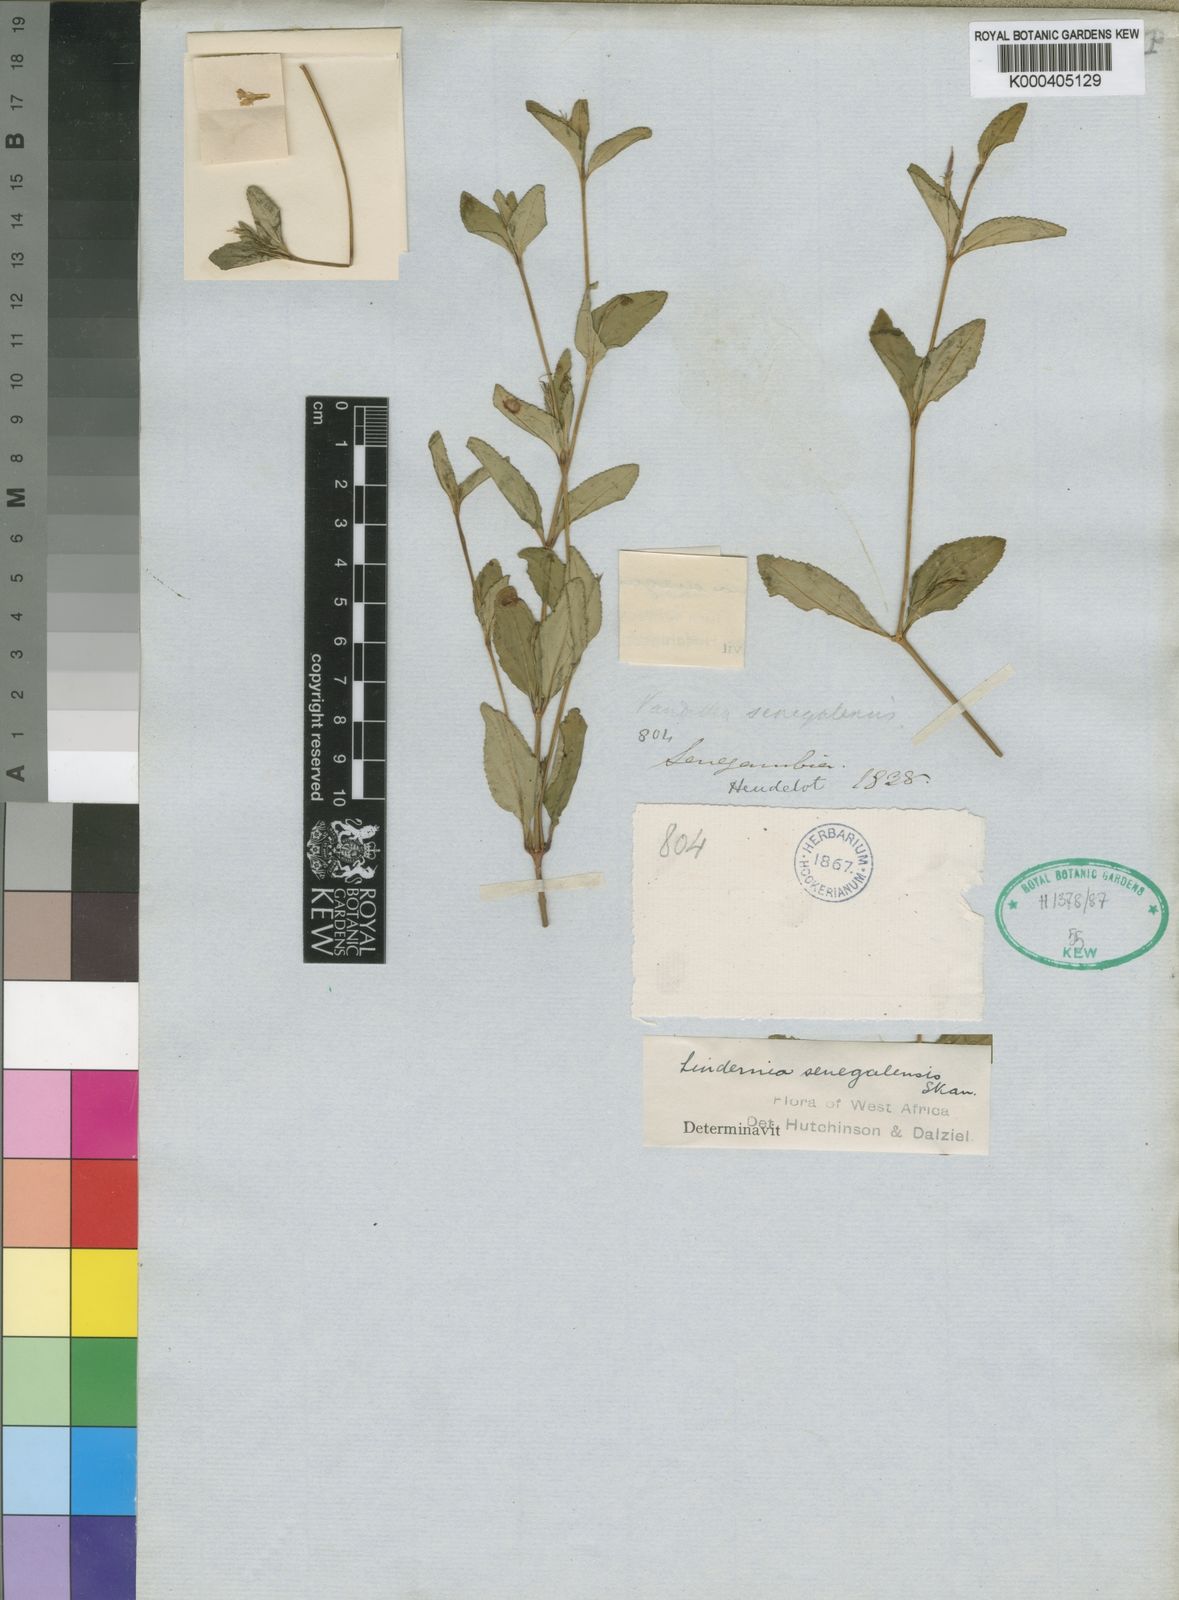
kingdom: Plantae
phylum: Tracheophyta
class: Magnoliopsida
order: Lamiales
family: Linderniaceae
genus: Vandellia
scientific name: Vandellia senegalensis
